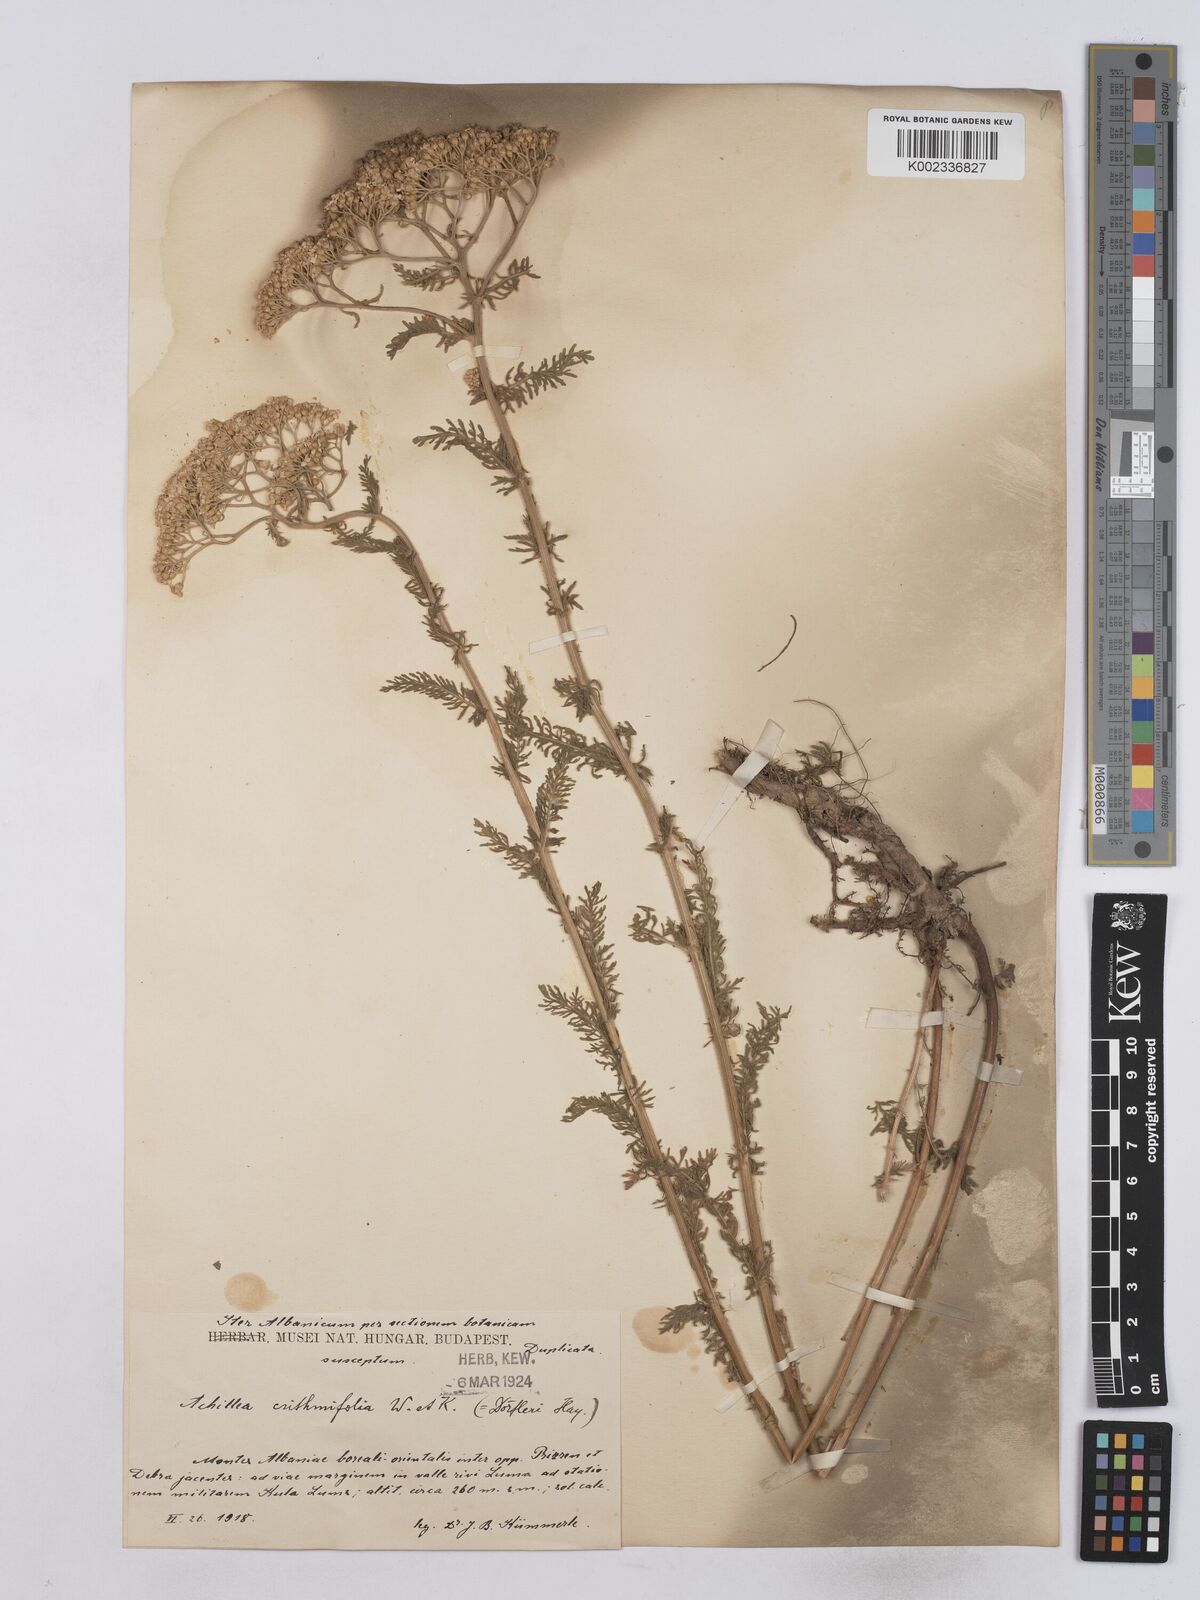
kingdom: Plantae
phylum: Tracheophyta
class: Magnoliopsida
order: Asterales
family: Asteraceae
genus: Achillea
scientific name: Achillea crithmifolia
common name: Yarrow
